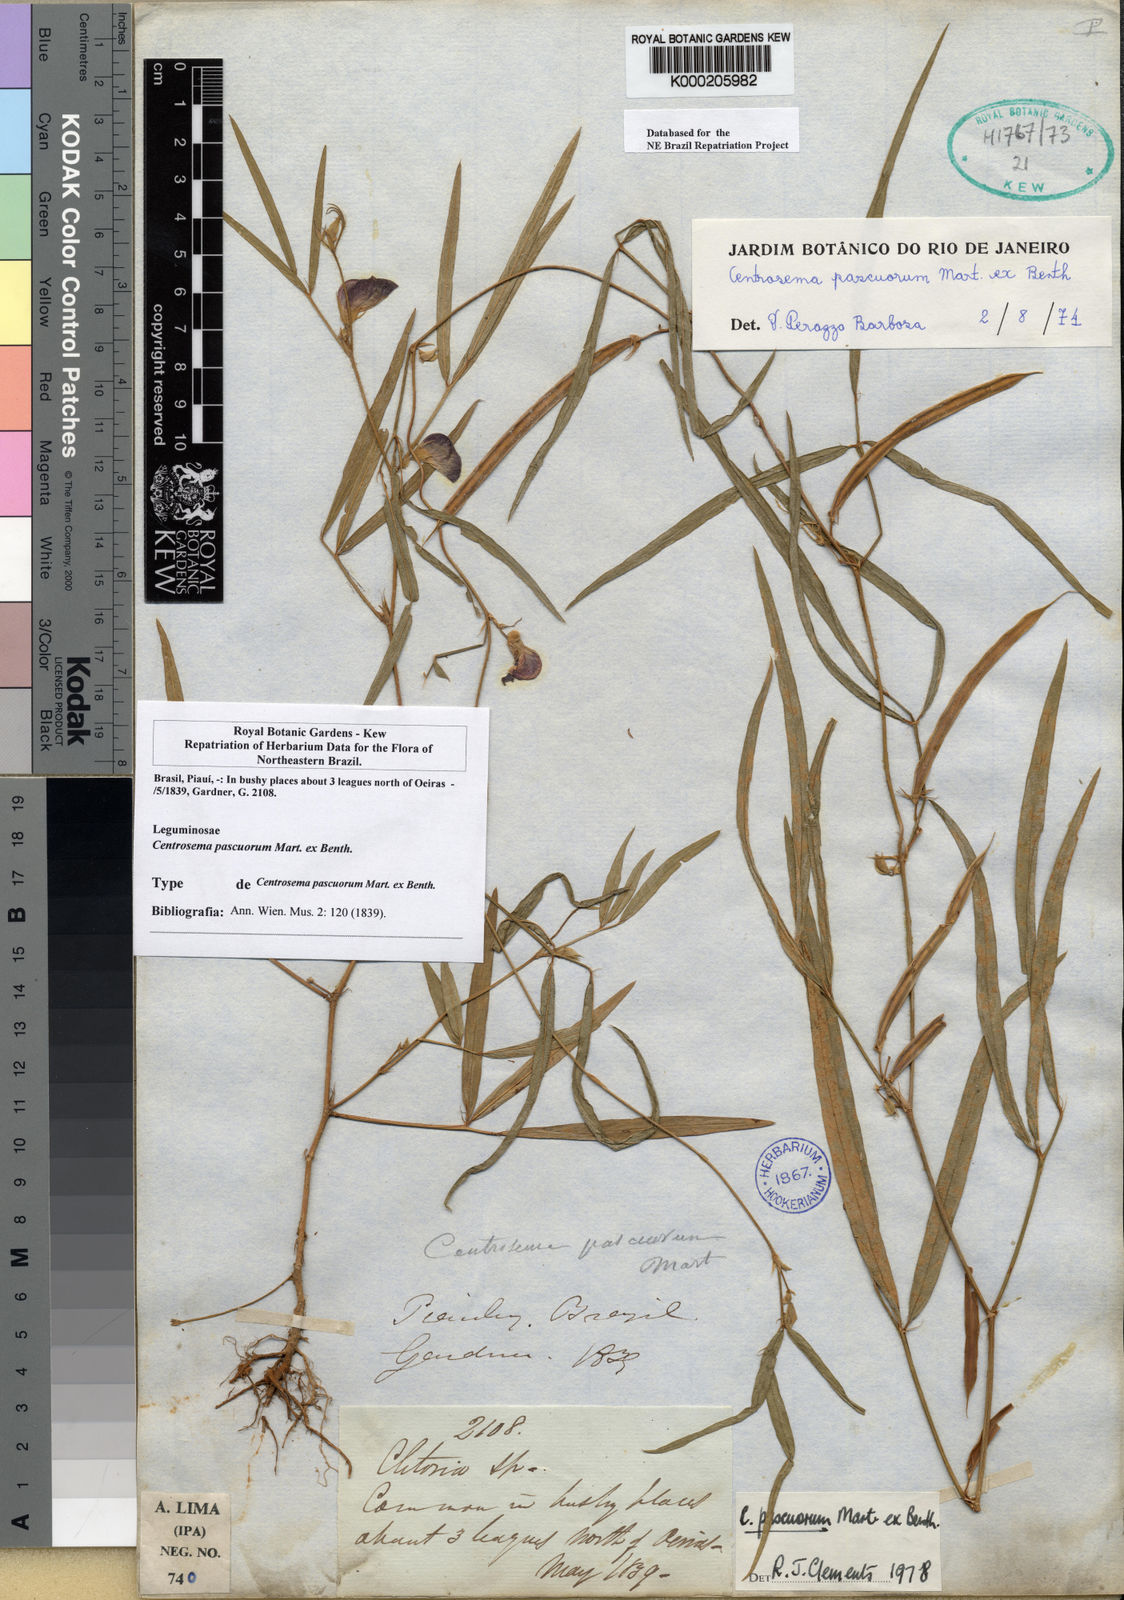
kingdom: Plantae
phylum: Tracheophyta
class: Magnoliopsida
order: Fabales
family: Fabaceae
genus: Centrosema
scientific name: Centrosema pascuorum
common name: Centurion
